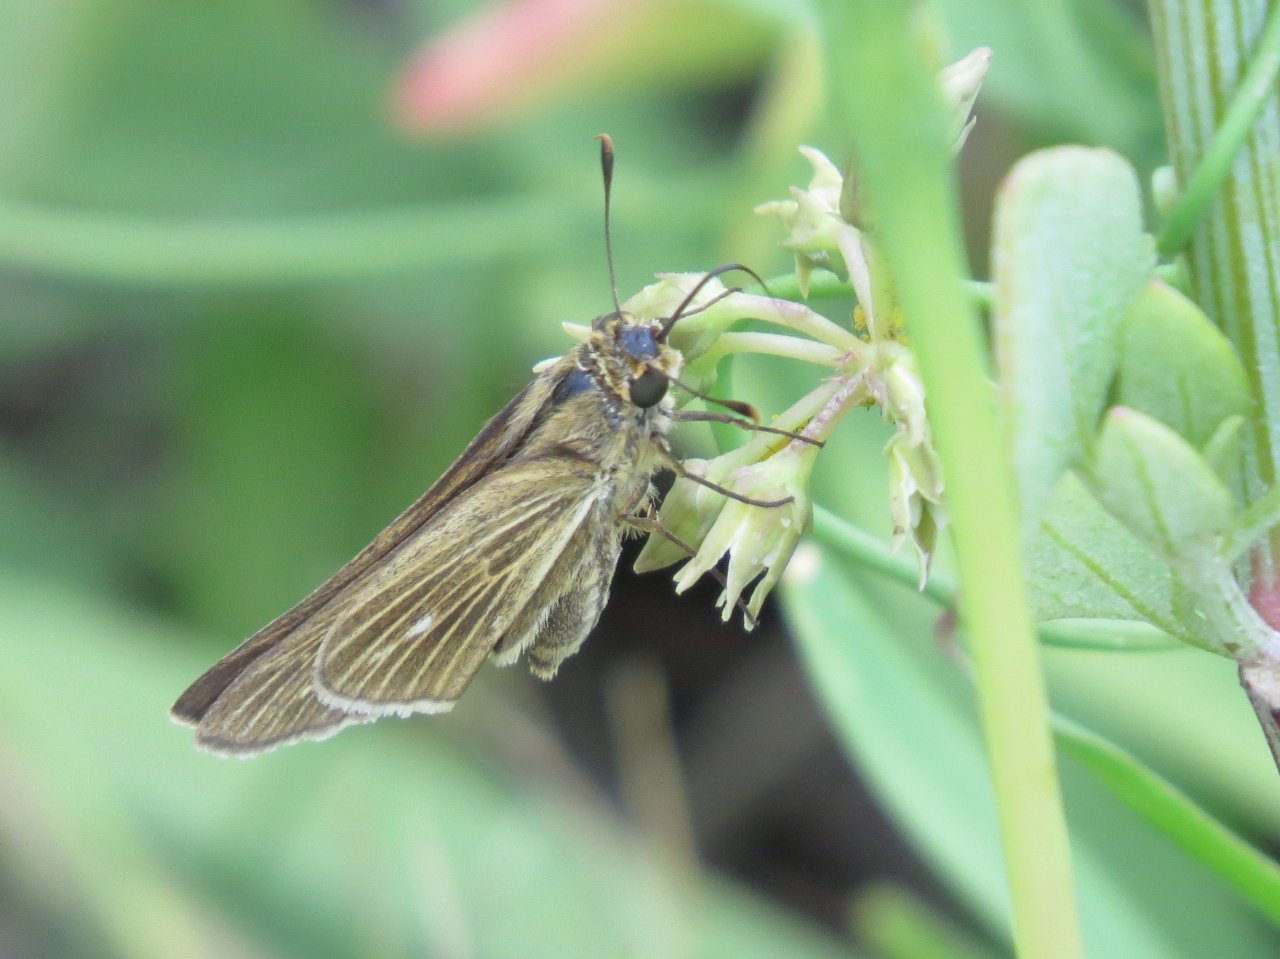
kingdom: Animalia
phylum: Arthropoda
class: Insecta
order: Lepidoptera
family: Hesperiidae
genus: Panoquina
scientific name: Panoquina panoquin
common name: Salt Marsh Skipper
